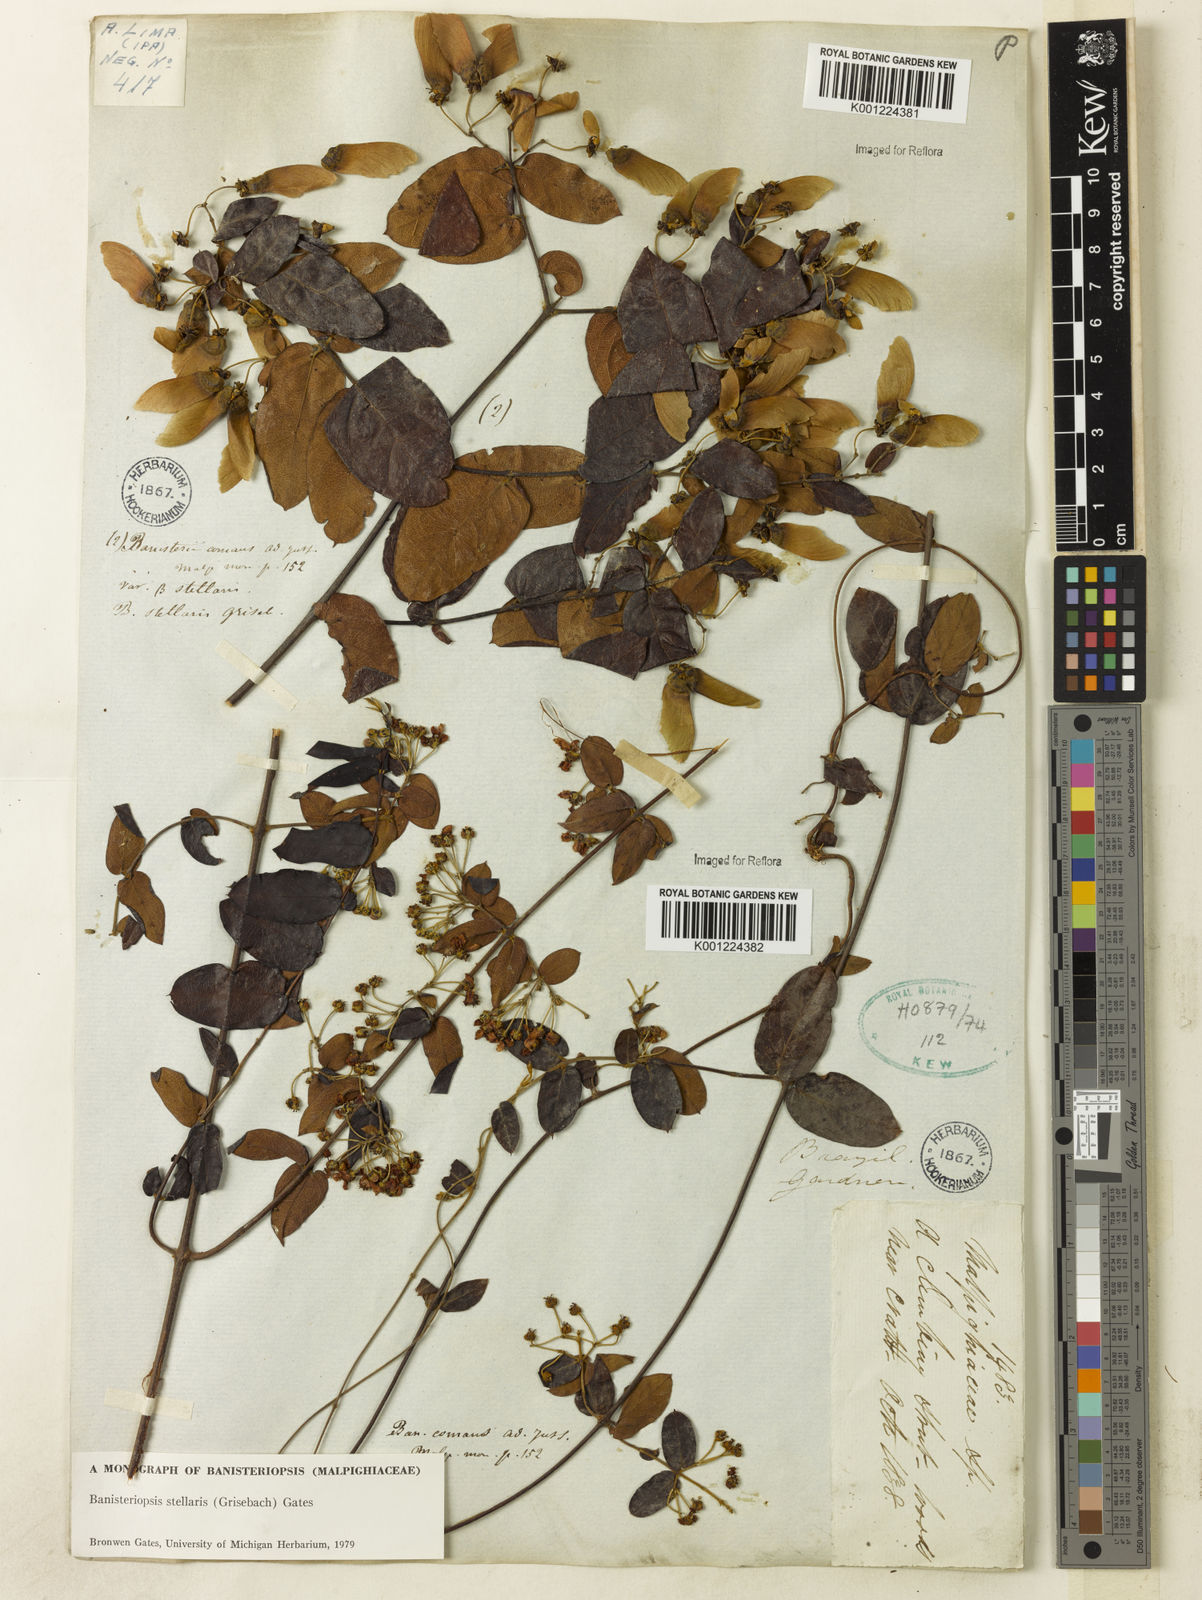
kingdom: Plantae
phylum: Tracheophyta
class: Magnoliopsida
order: Malpighiales
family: Malpighiaceae
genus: Banisteriopsis
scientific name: Banisteriopsis stellaris
